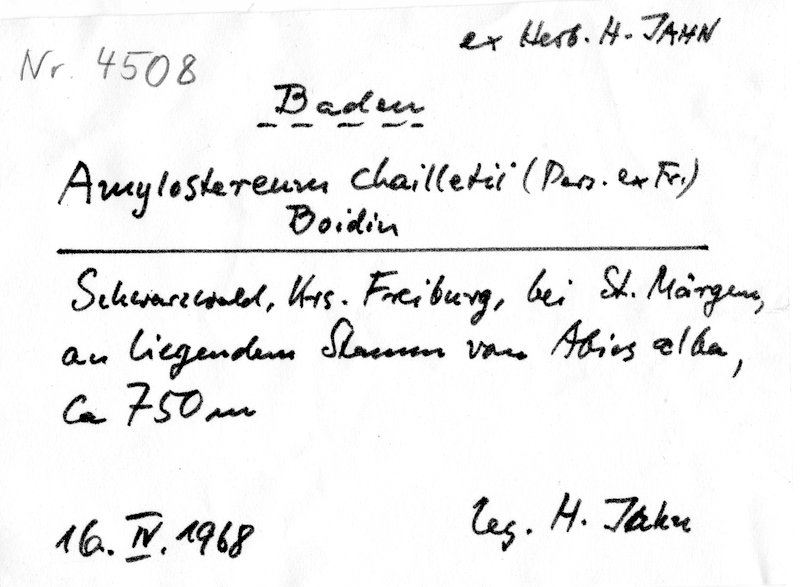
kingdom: Fungi
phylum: Basidiomycota
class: Agaricomycetes
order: Russulales
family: Echinodontiaceae
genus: Amylostereum
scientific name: Amylostereum chailletii
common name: Powdered duster
